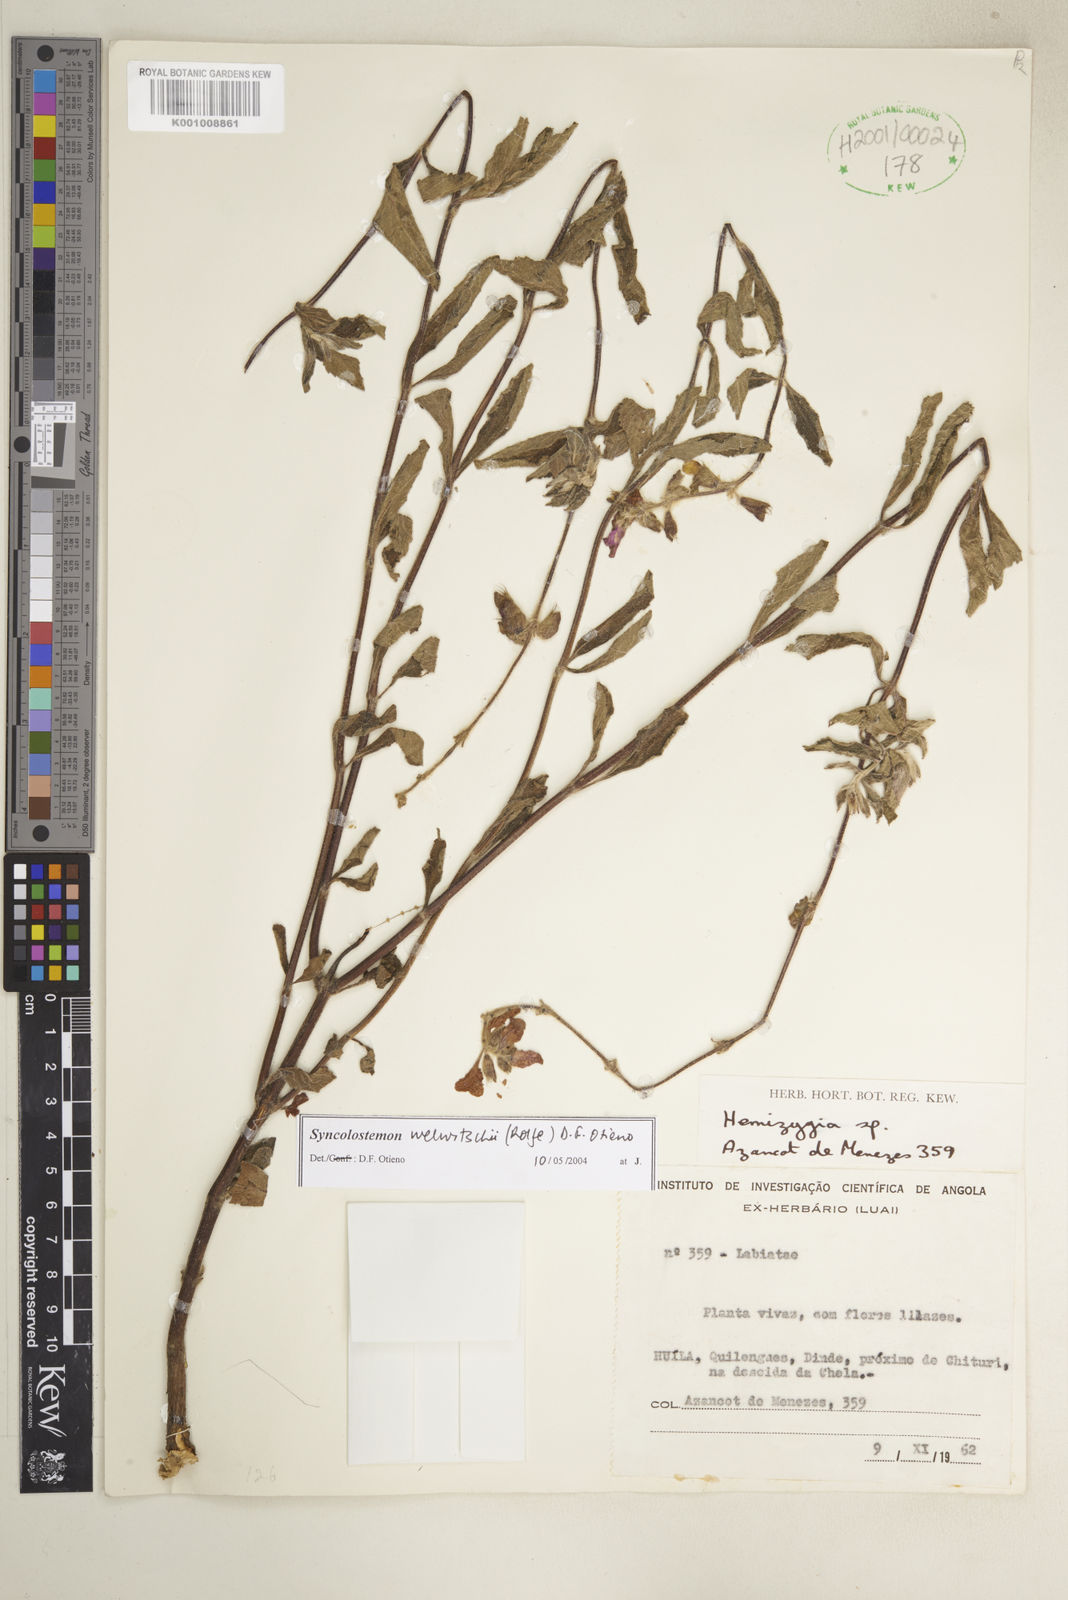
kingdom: Plantae
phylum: Tracheophyta
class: Magnoliopsida
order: Lamiales
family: Lamiaceae
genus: Syncolostemon
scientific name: Syncolostemon welwitschii
